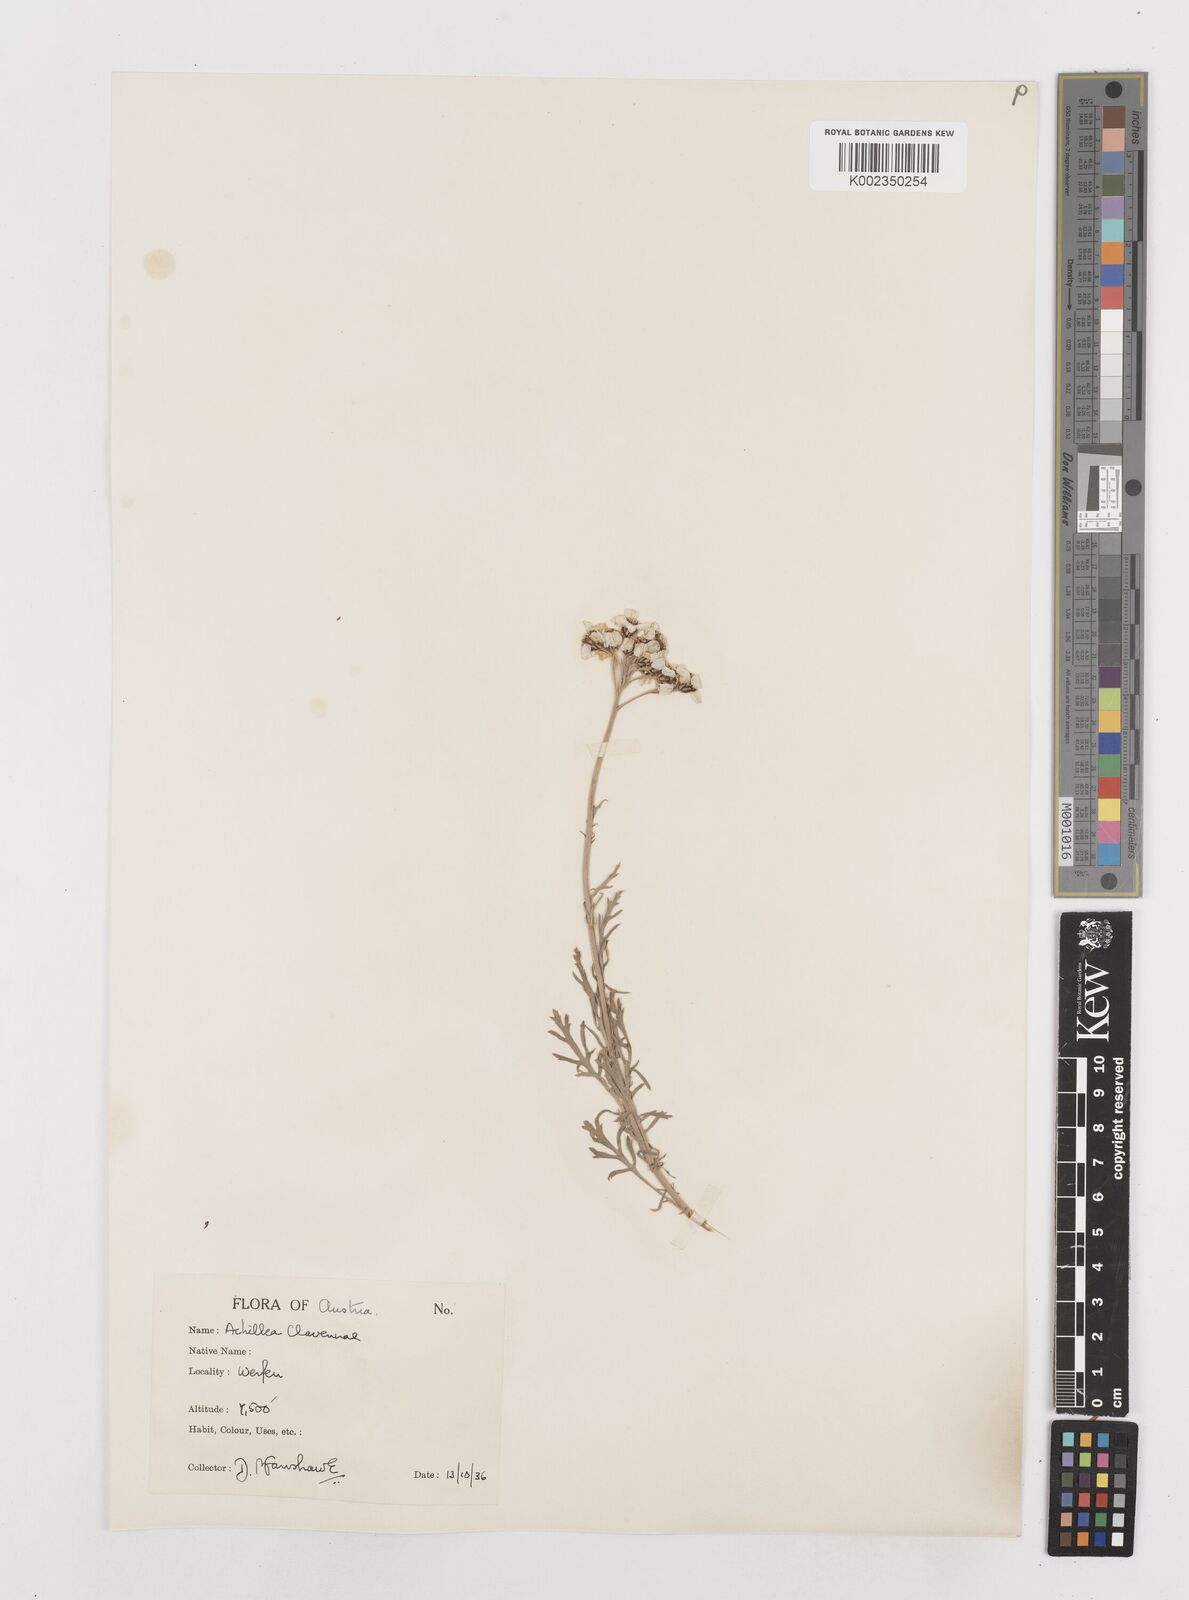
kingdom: Plantae
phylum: Tracheophyta
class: Magnoliopsida
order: Asterales
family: Asteraceae
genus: Achillea
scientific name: Achillea clavennae
